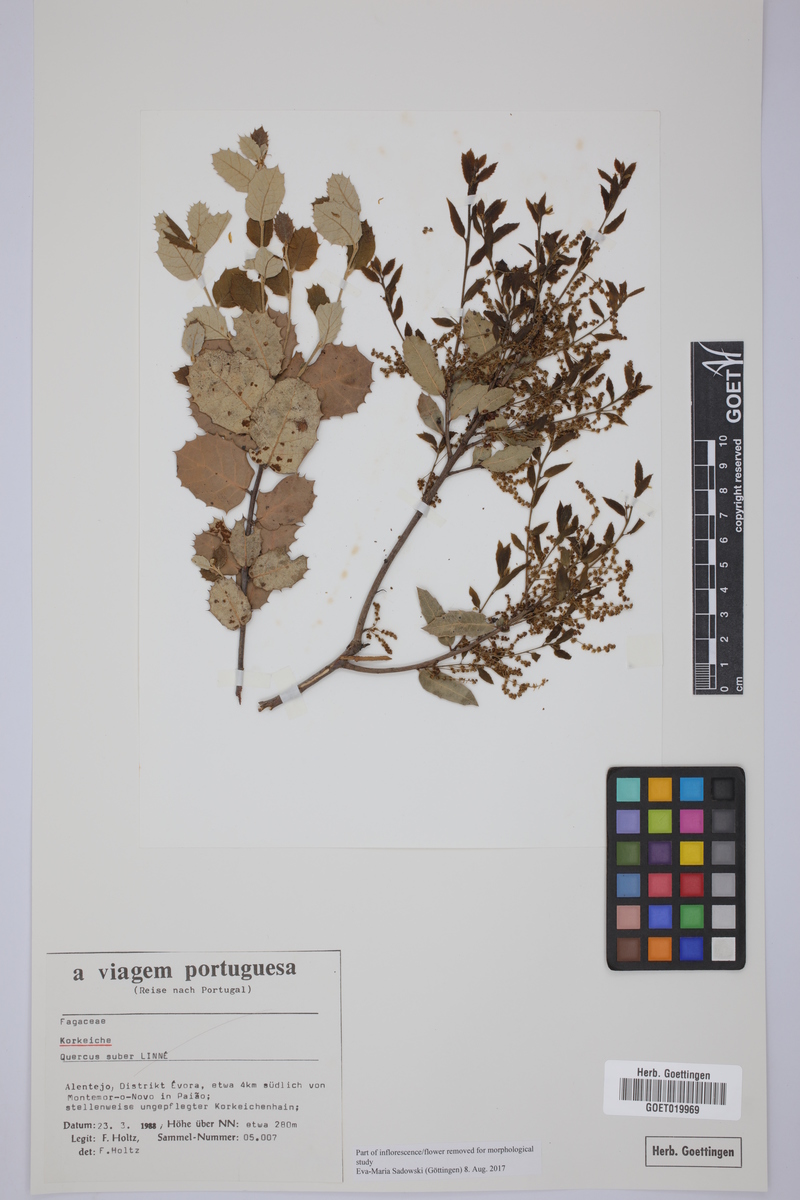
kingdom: Plantae
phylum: Tracheophyta
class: Magnoliopsida
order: Fagales
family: Fagaceae
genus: Quercus
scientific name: Quercus suber
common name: Cork oak
